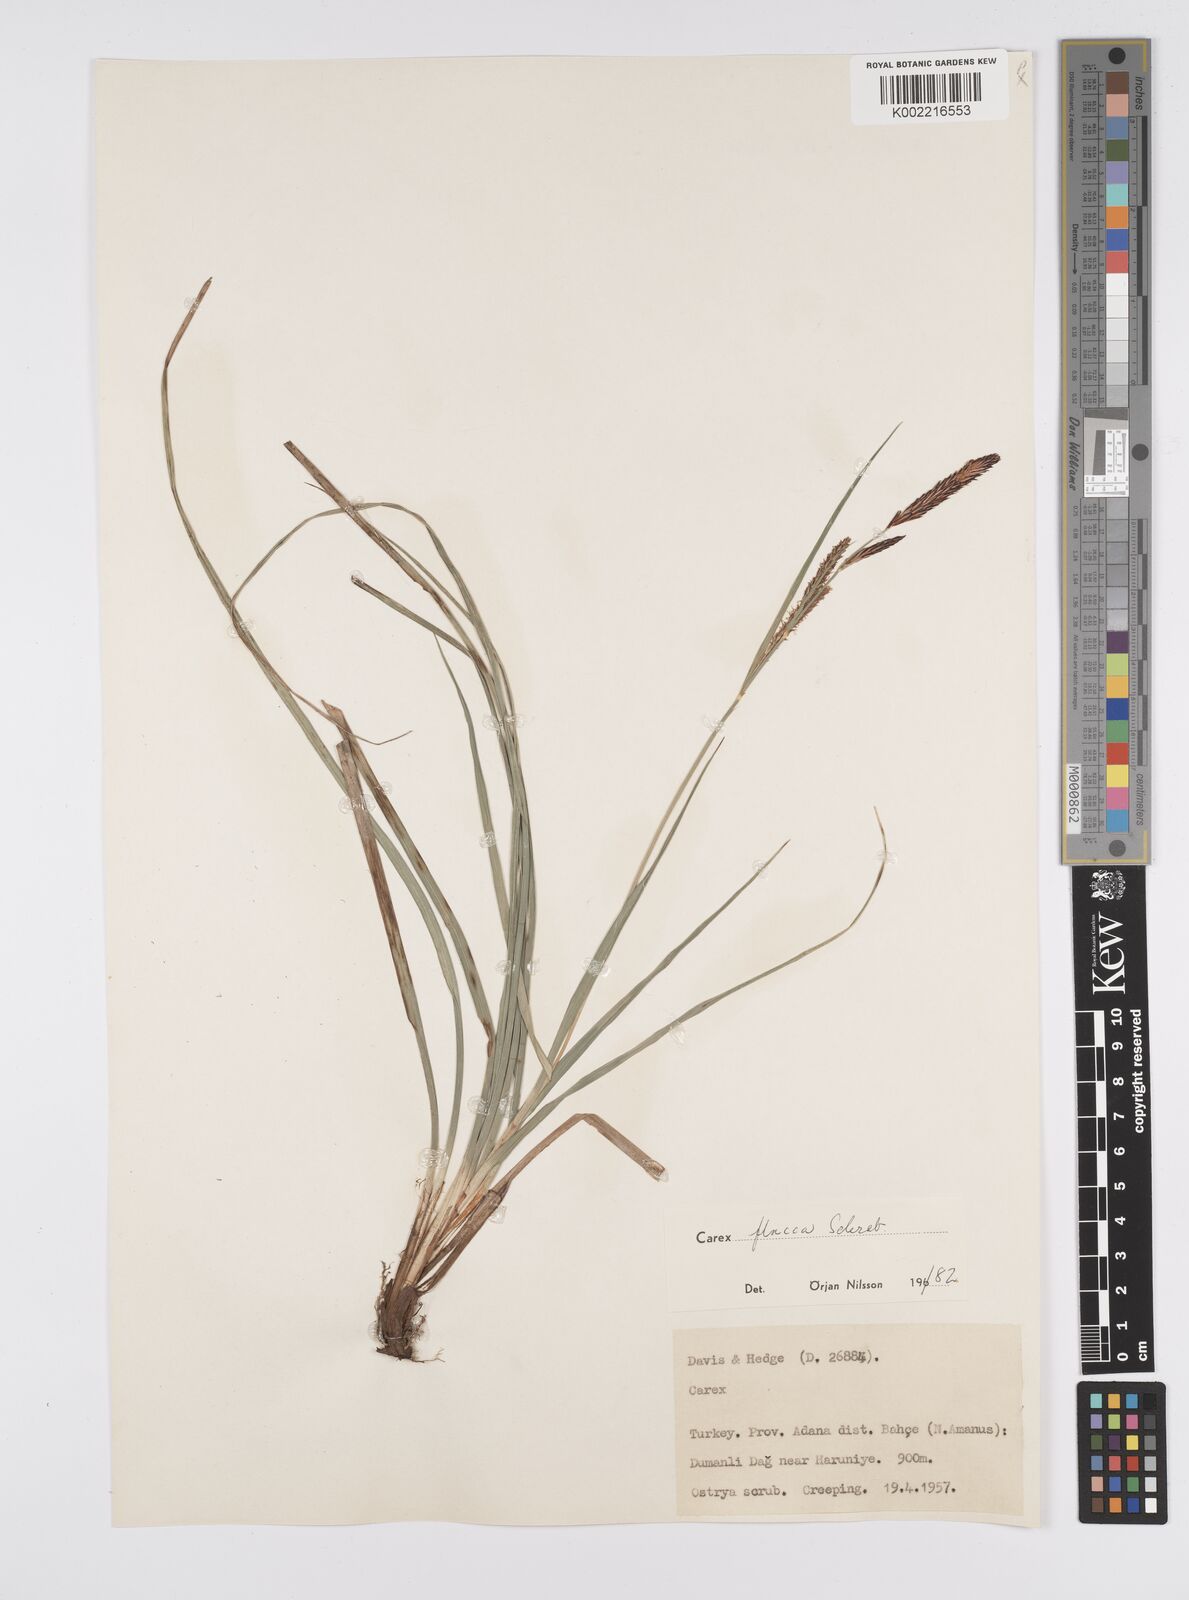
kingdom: Plantae
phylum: Tracheophyta
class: Liliopsida
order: Poales
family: Cyperaceae
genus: Carex
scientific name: Carex flacca
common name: Glaucous sedge
